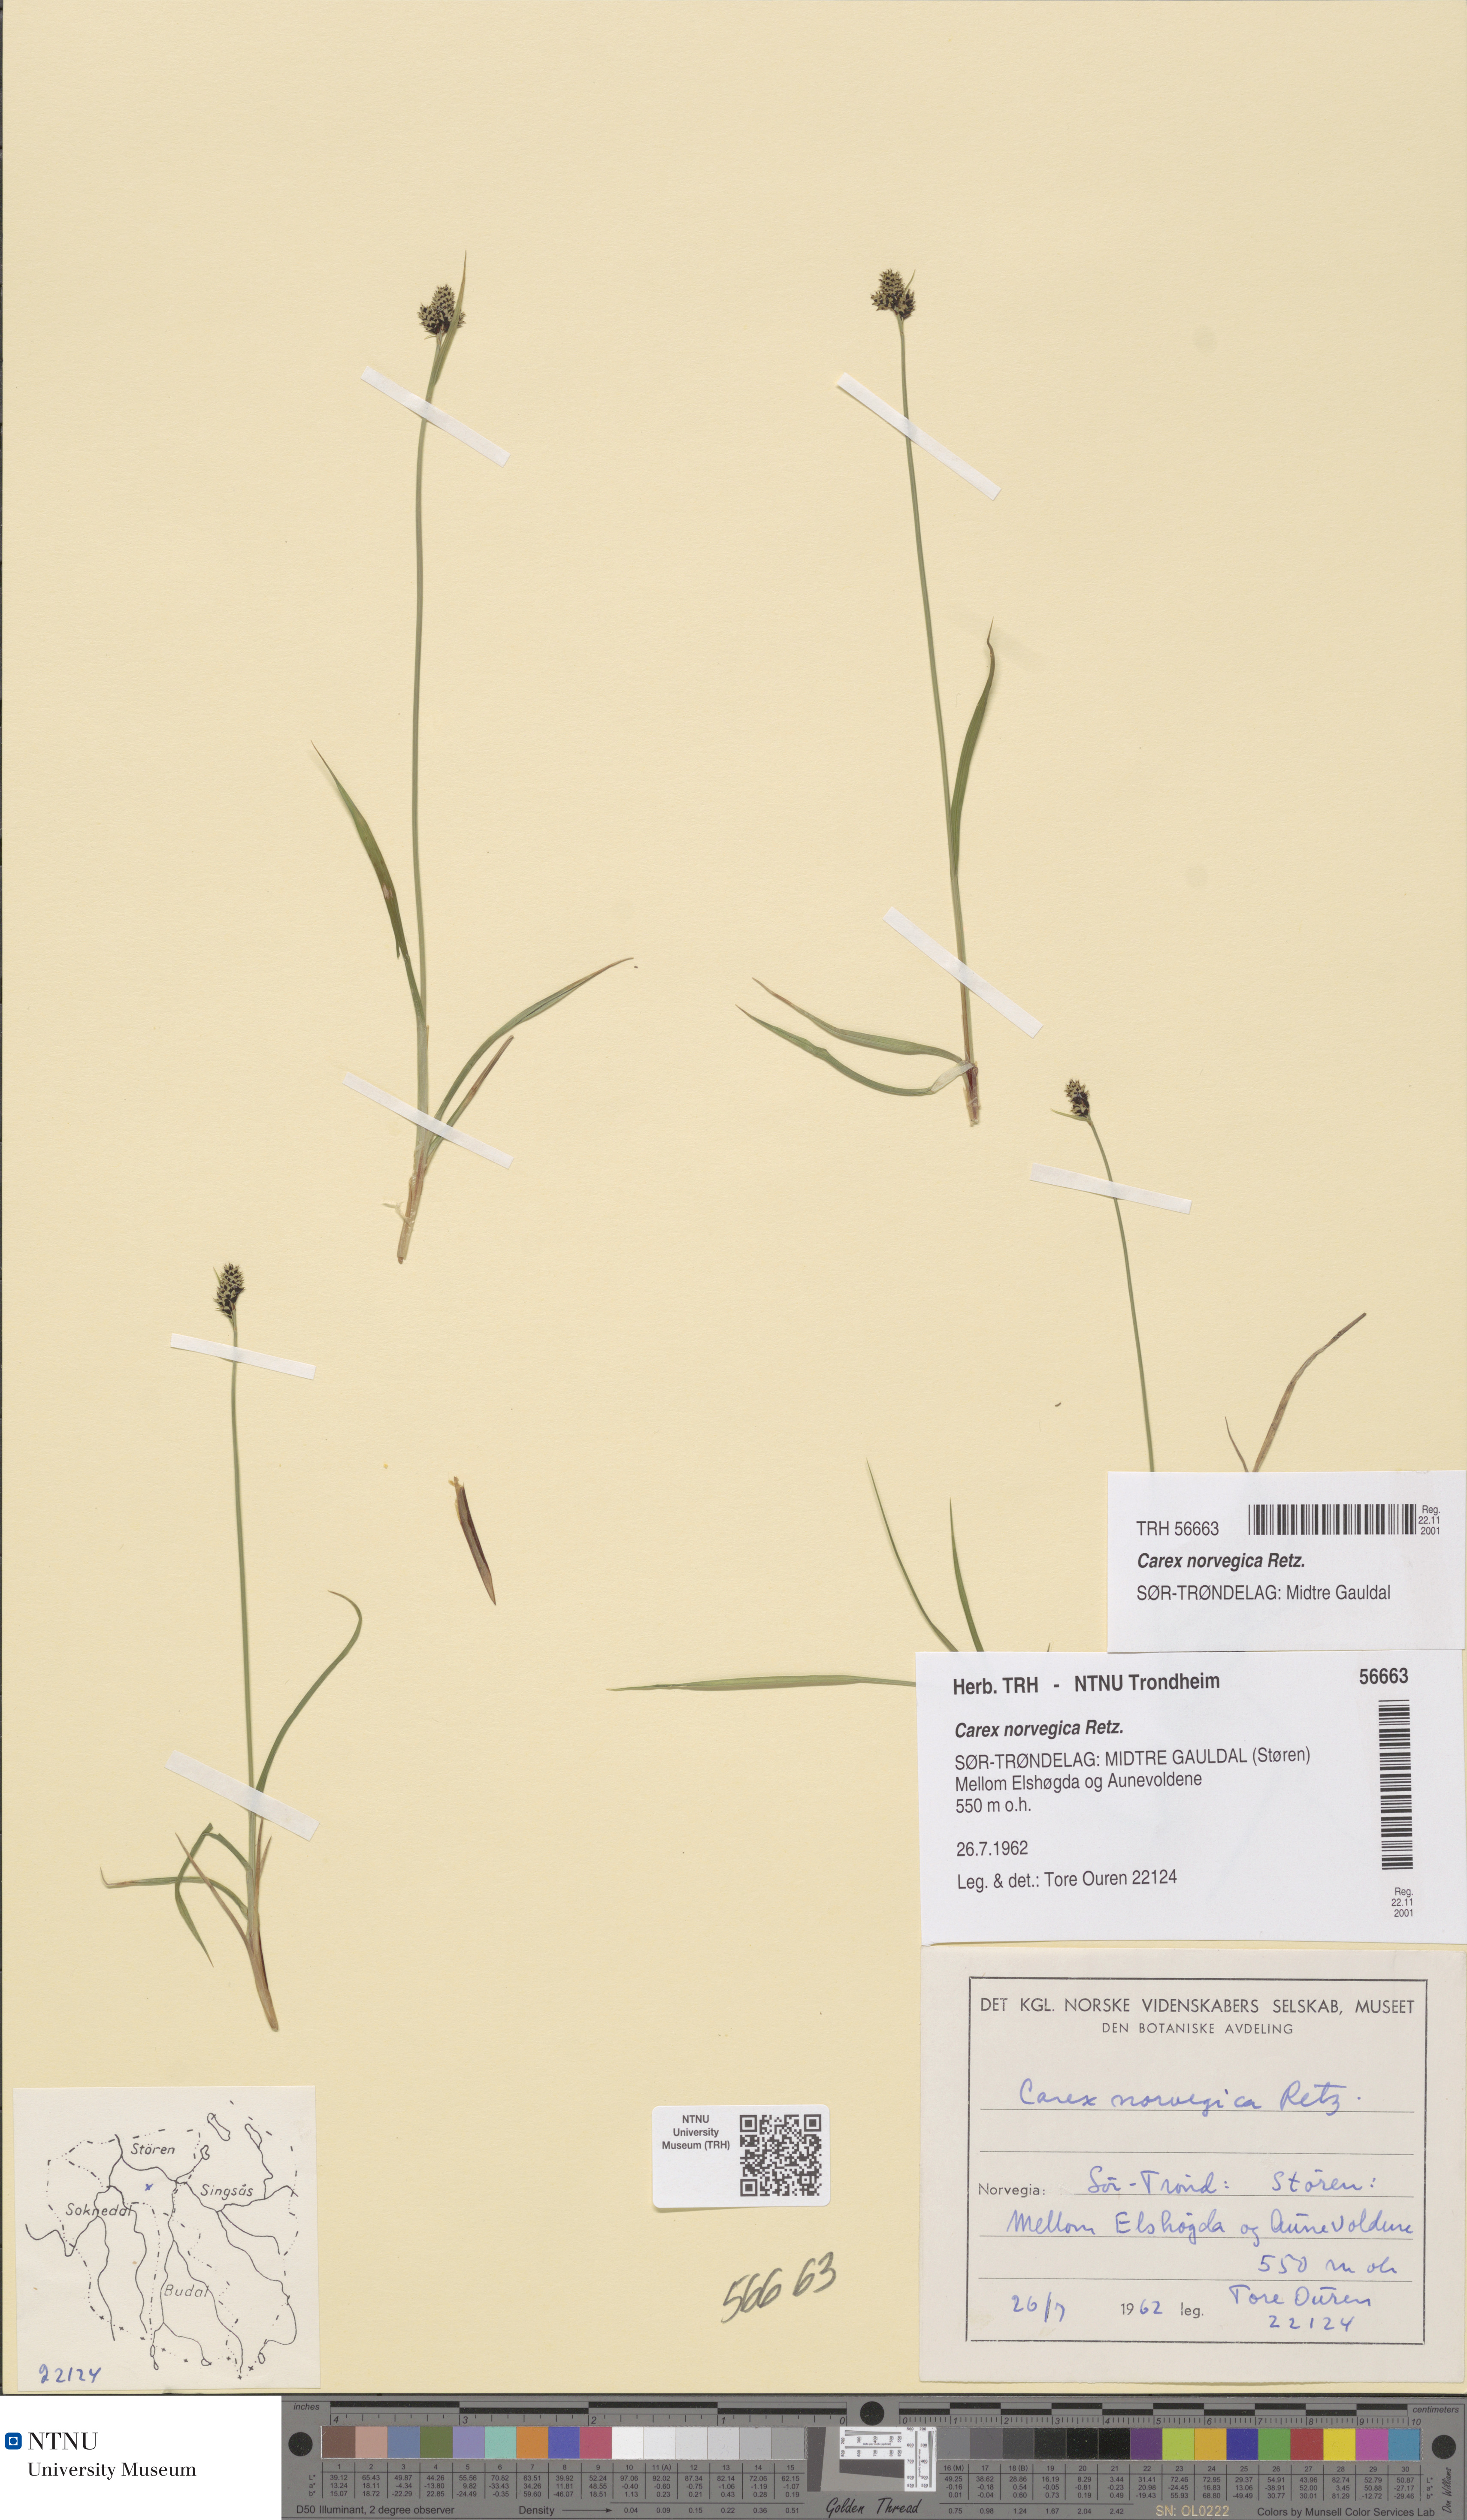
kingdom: Plantae
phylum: Tracheophyta
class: Liliopsida
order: Poales
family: Cyperaceae
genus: Carex
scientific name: Carex norvegica
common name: Close-headed alpine-sedge
